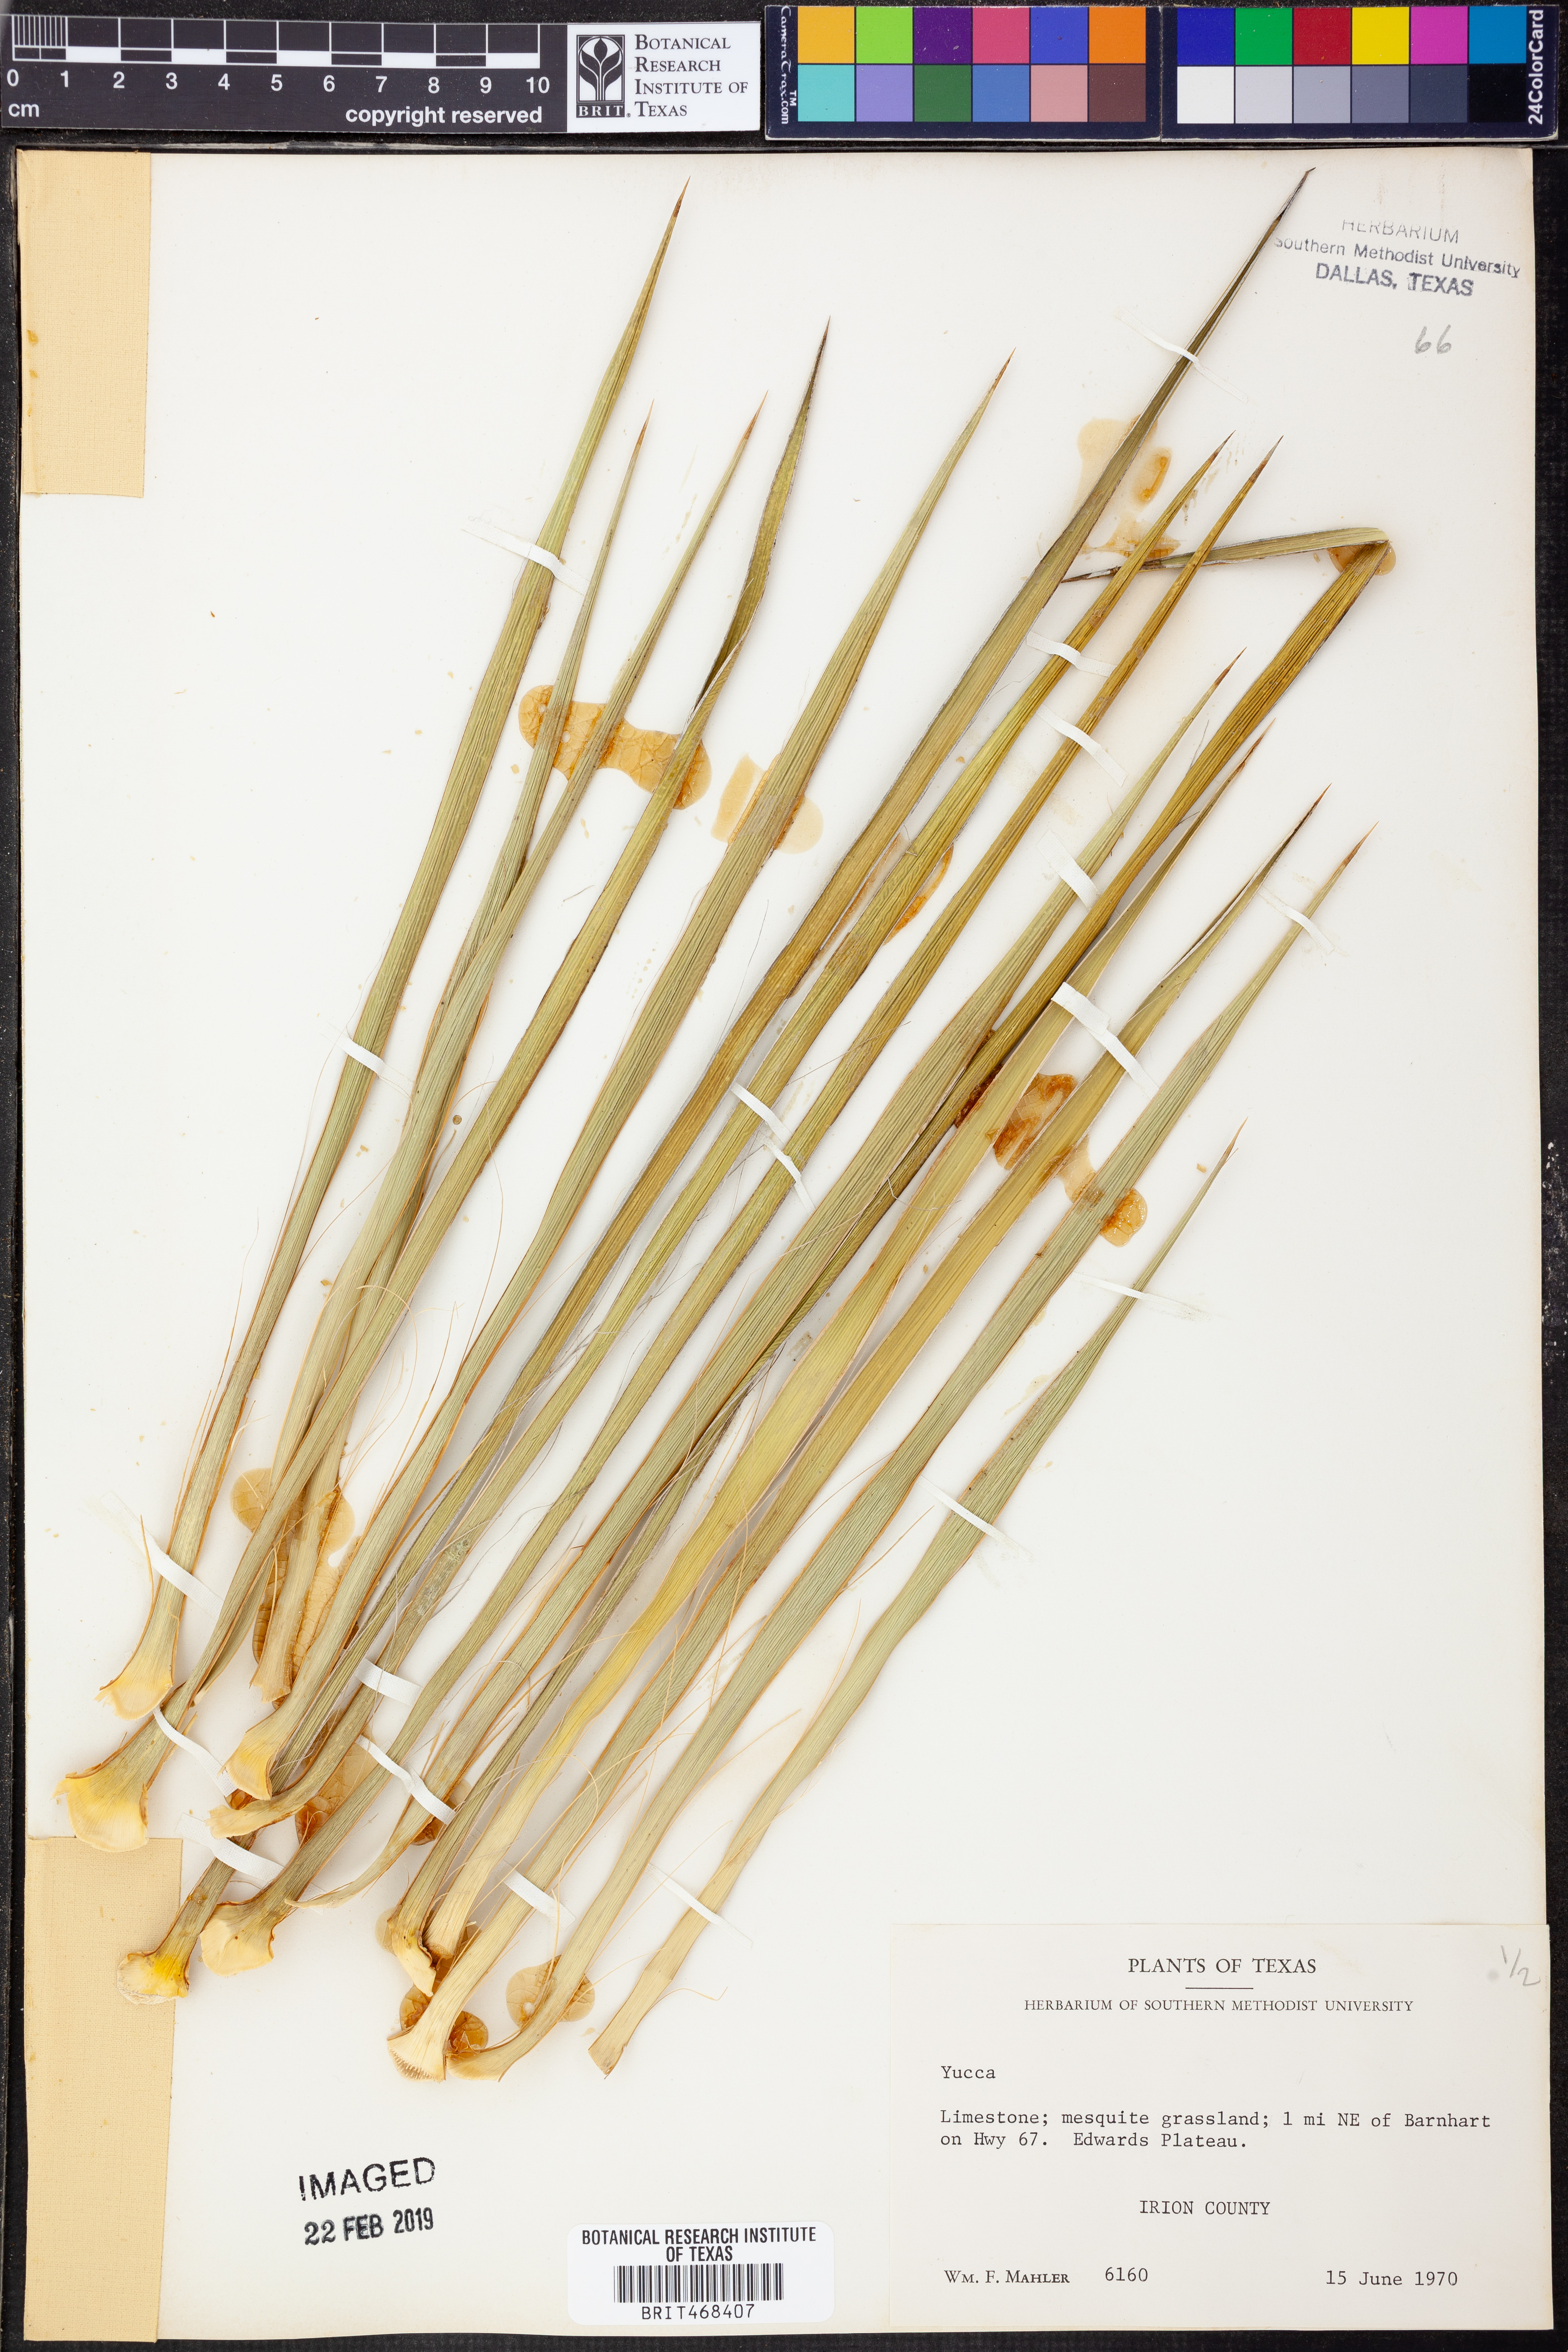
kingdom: Plantae
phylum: Tracheophyta
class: Liliopsida
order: Asparagales
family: Asparagaceae
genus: Yucca
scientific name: Yucca
